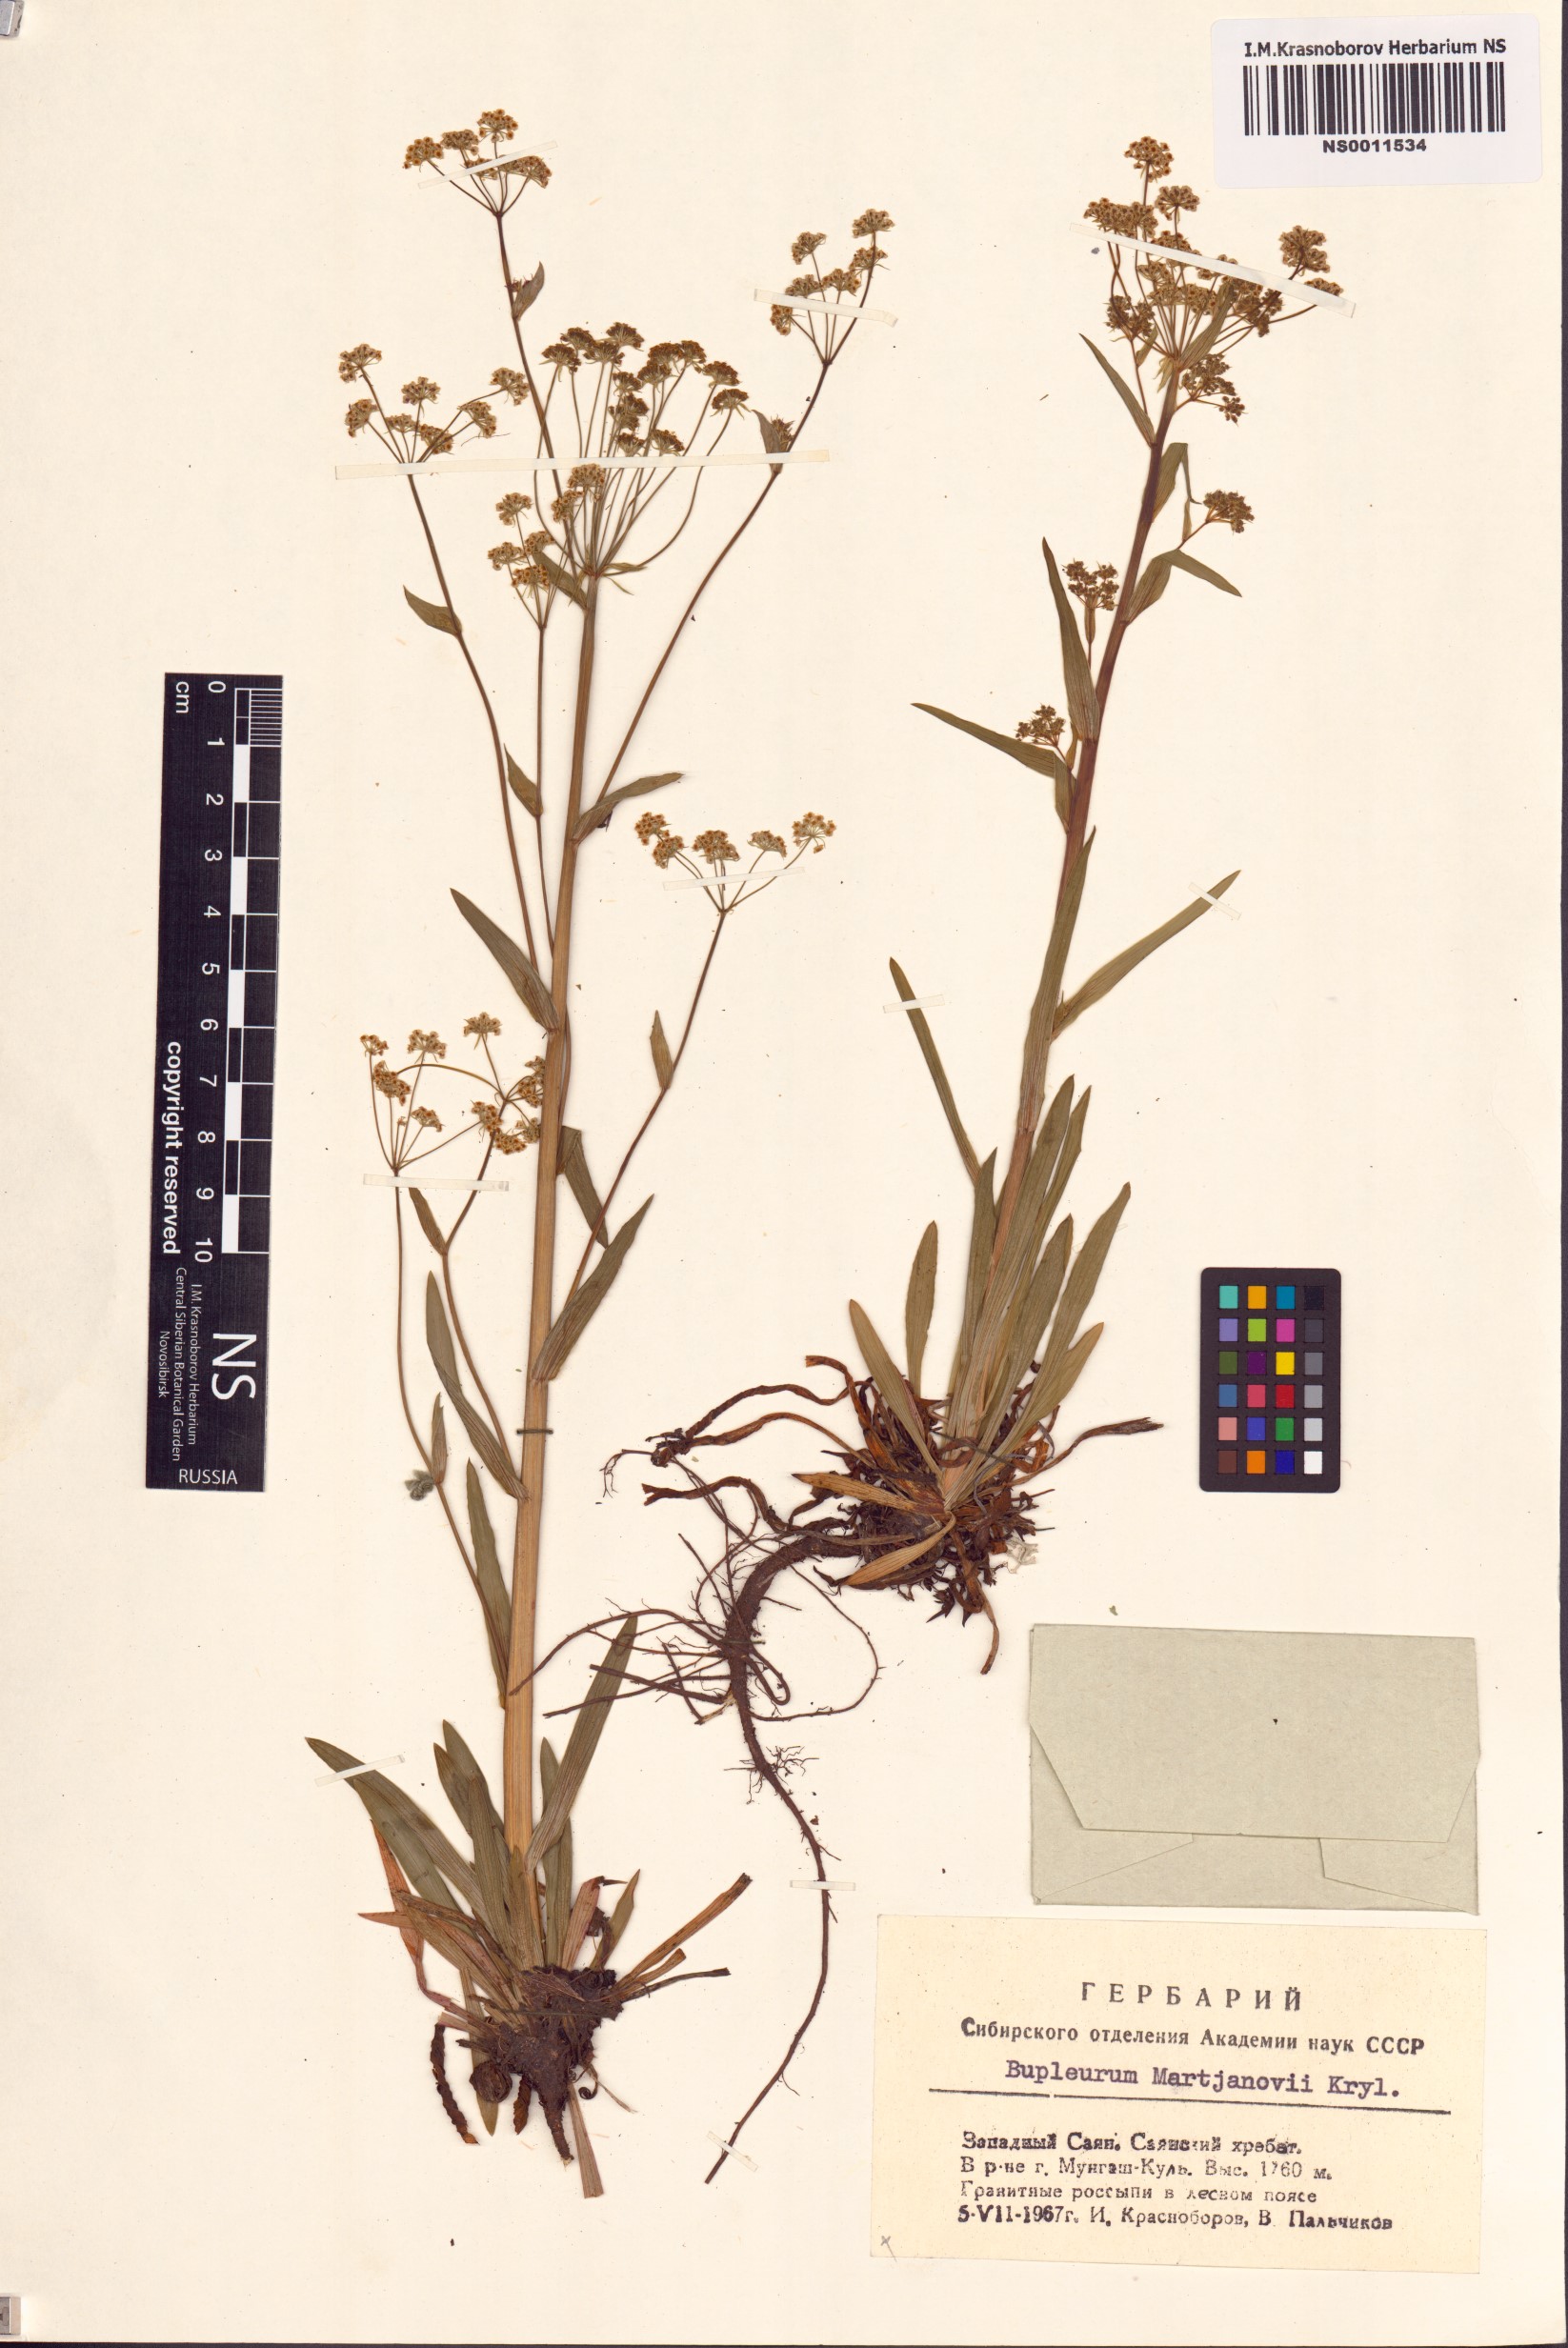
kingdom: Plantae
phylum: Tracheophyta
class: Magnoliopsida
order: Apiales
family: Apiaceae
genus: Bupleurum
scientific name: Bupleurum martjanovii
